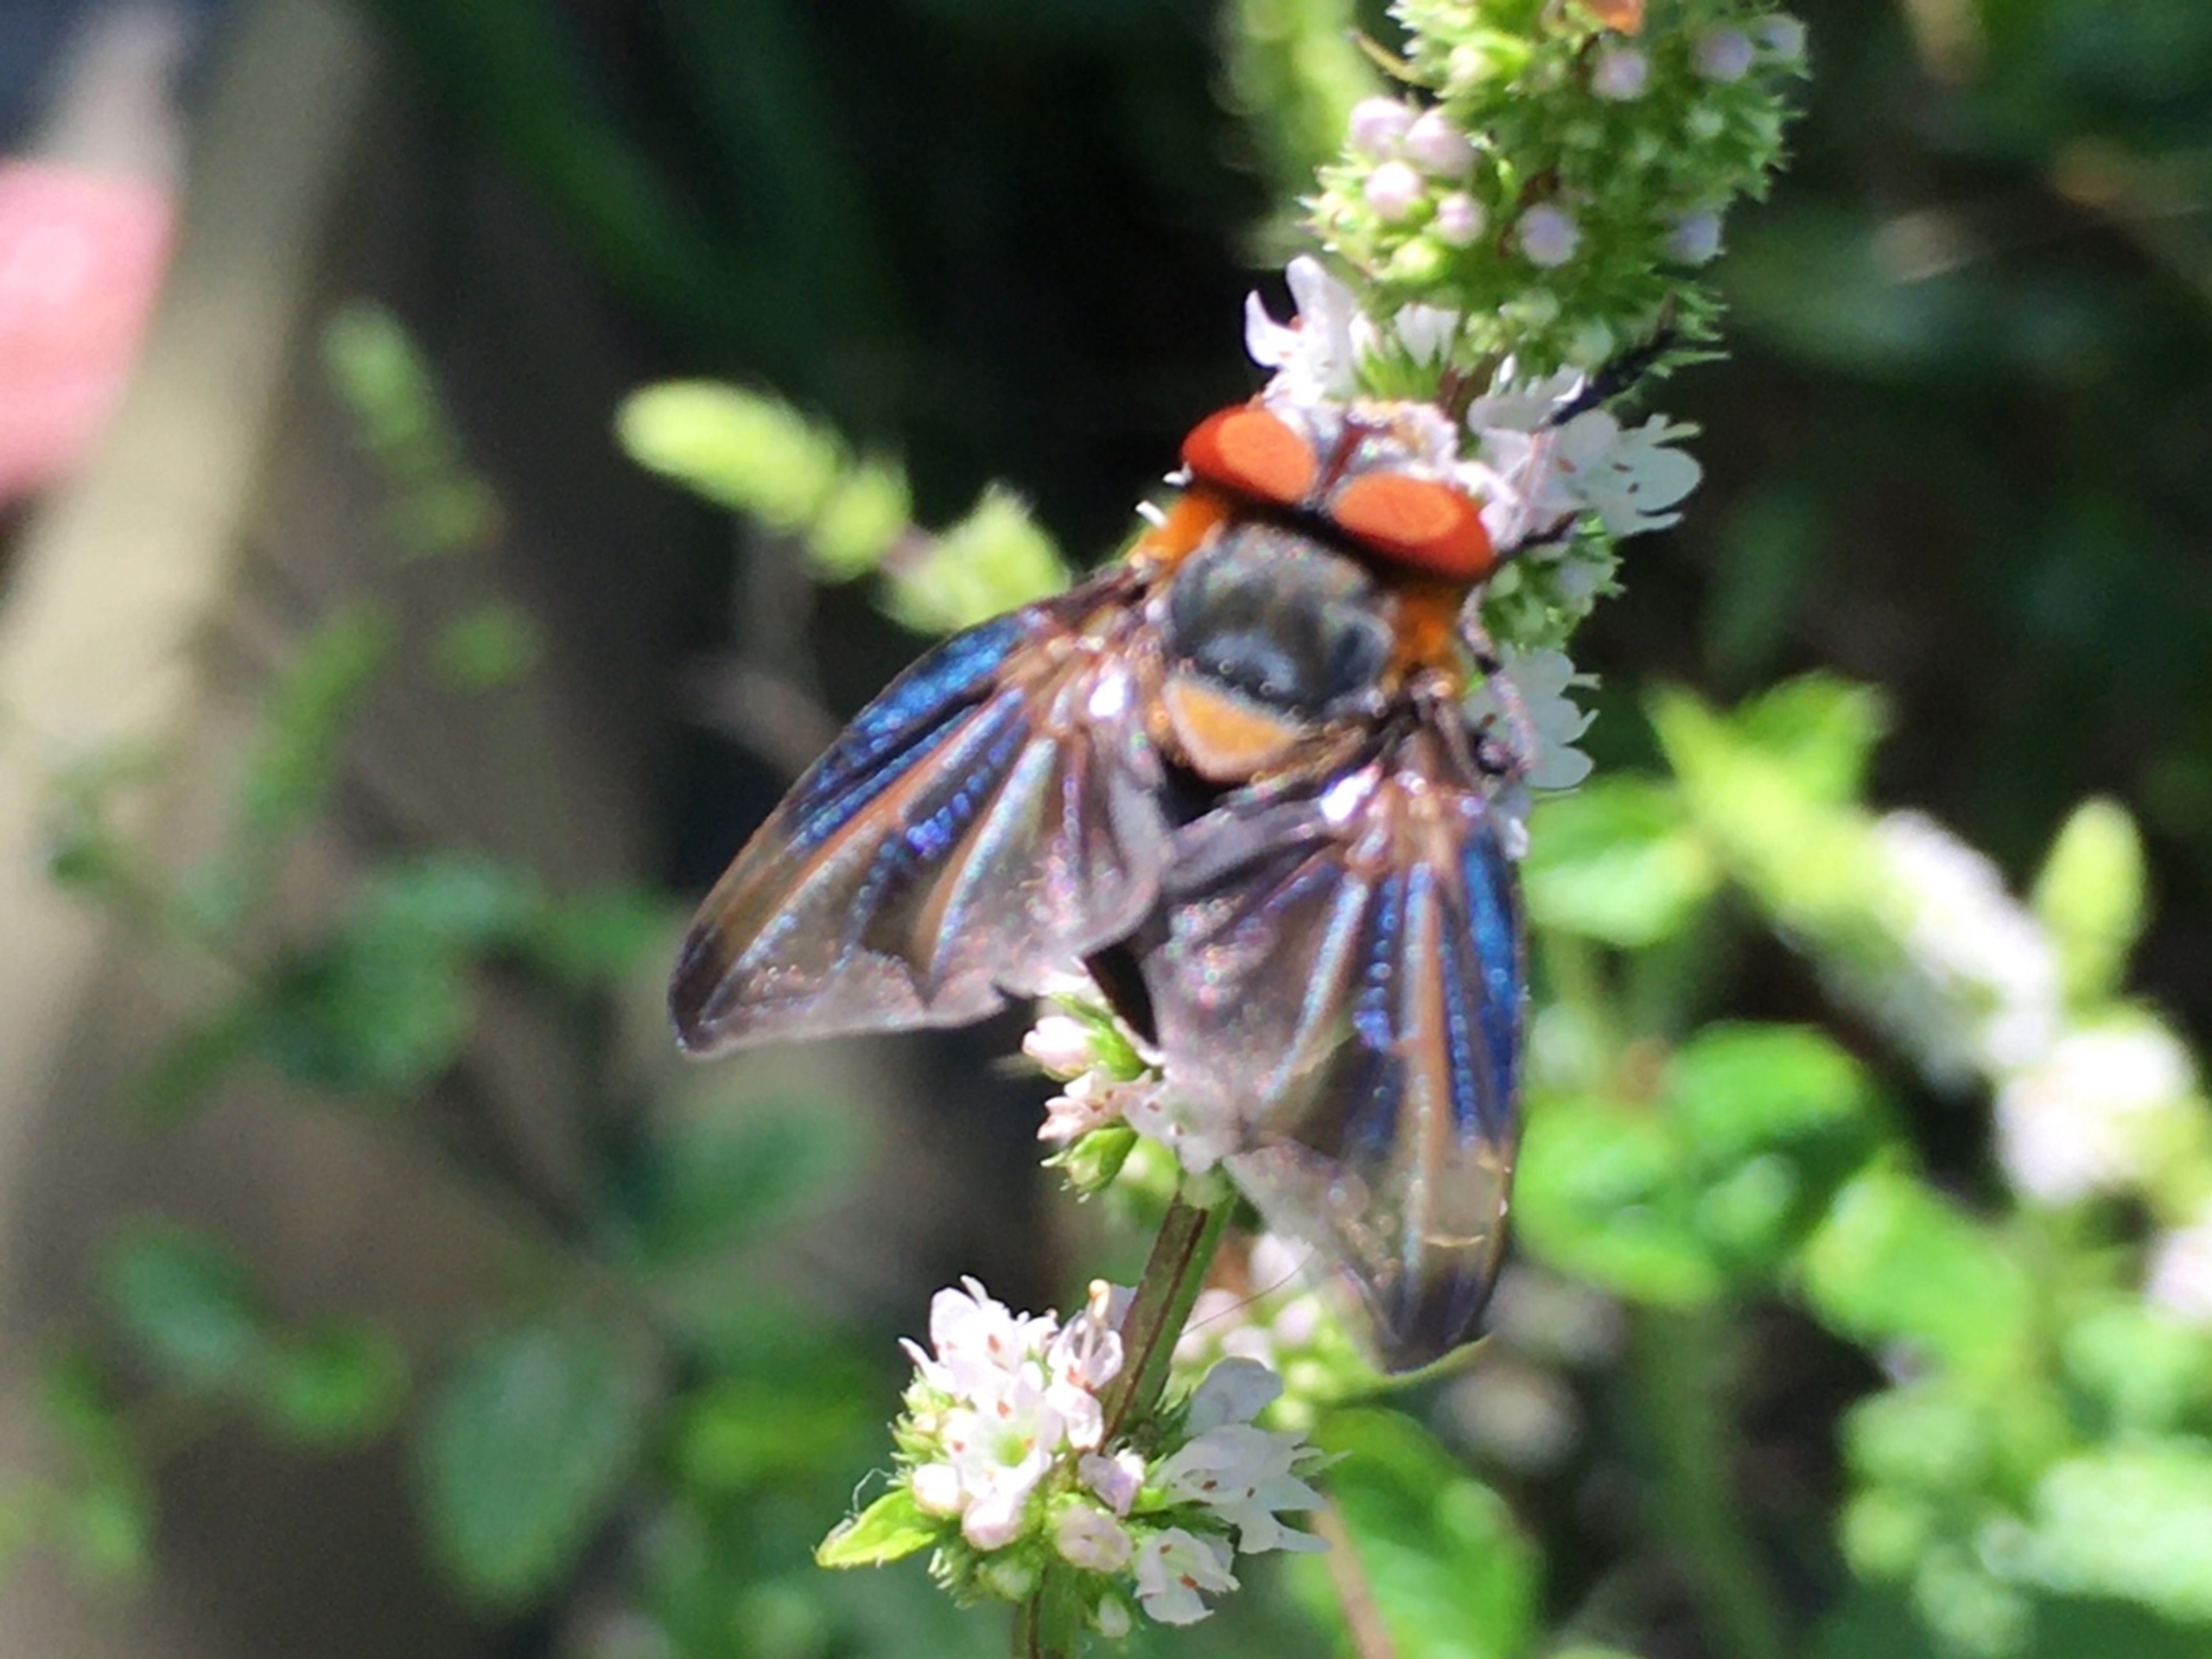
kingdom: Animalia
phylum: Arthropoda
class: Insecta
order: Diptera
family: Tachinidae
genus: Phasia
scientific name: Phasia hemiptera
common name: Blåvinget pragtsnylteflue
